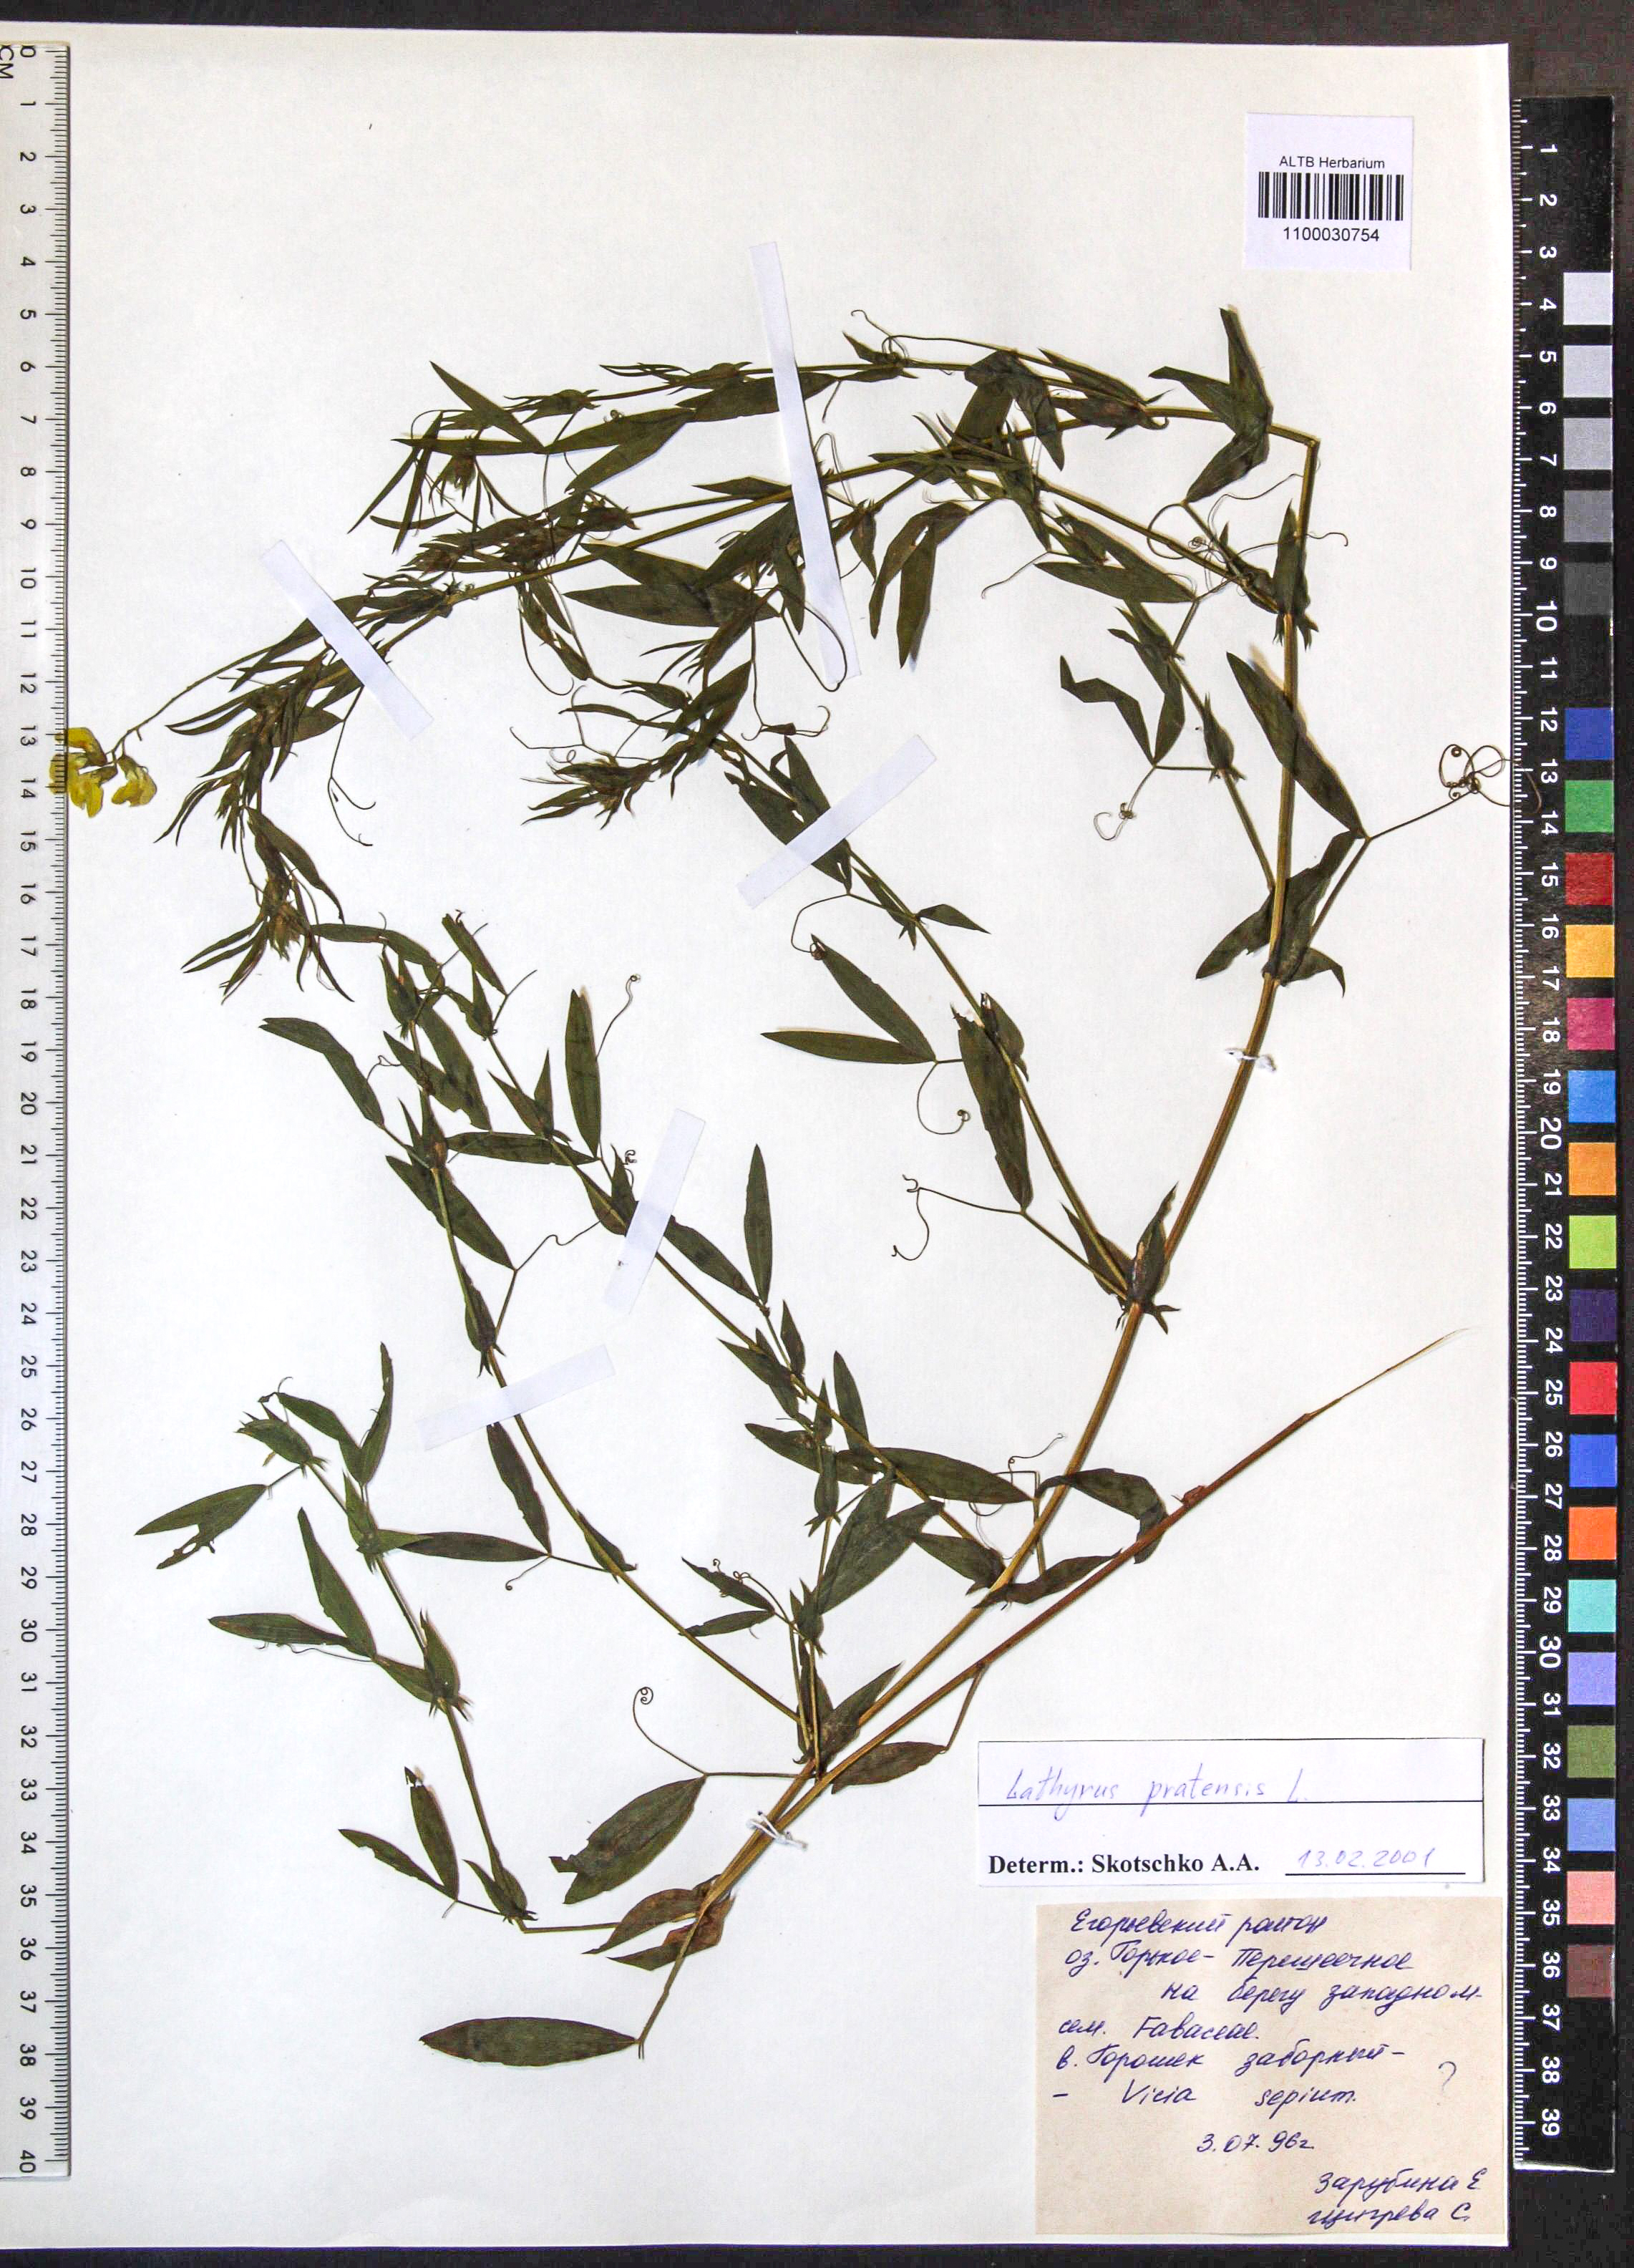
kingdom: Plantae
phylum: Tracheophyta
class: Magnoliopsida
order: Fabales
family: Fabaceae
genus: Lathyrus
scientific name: Lathyrus pratensis
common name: Meadow vetchling
